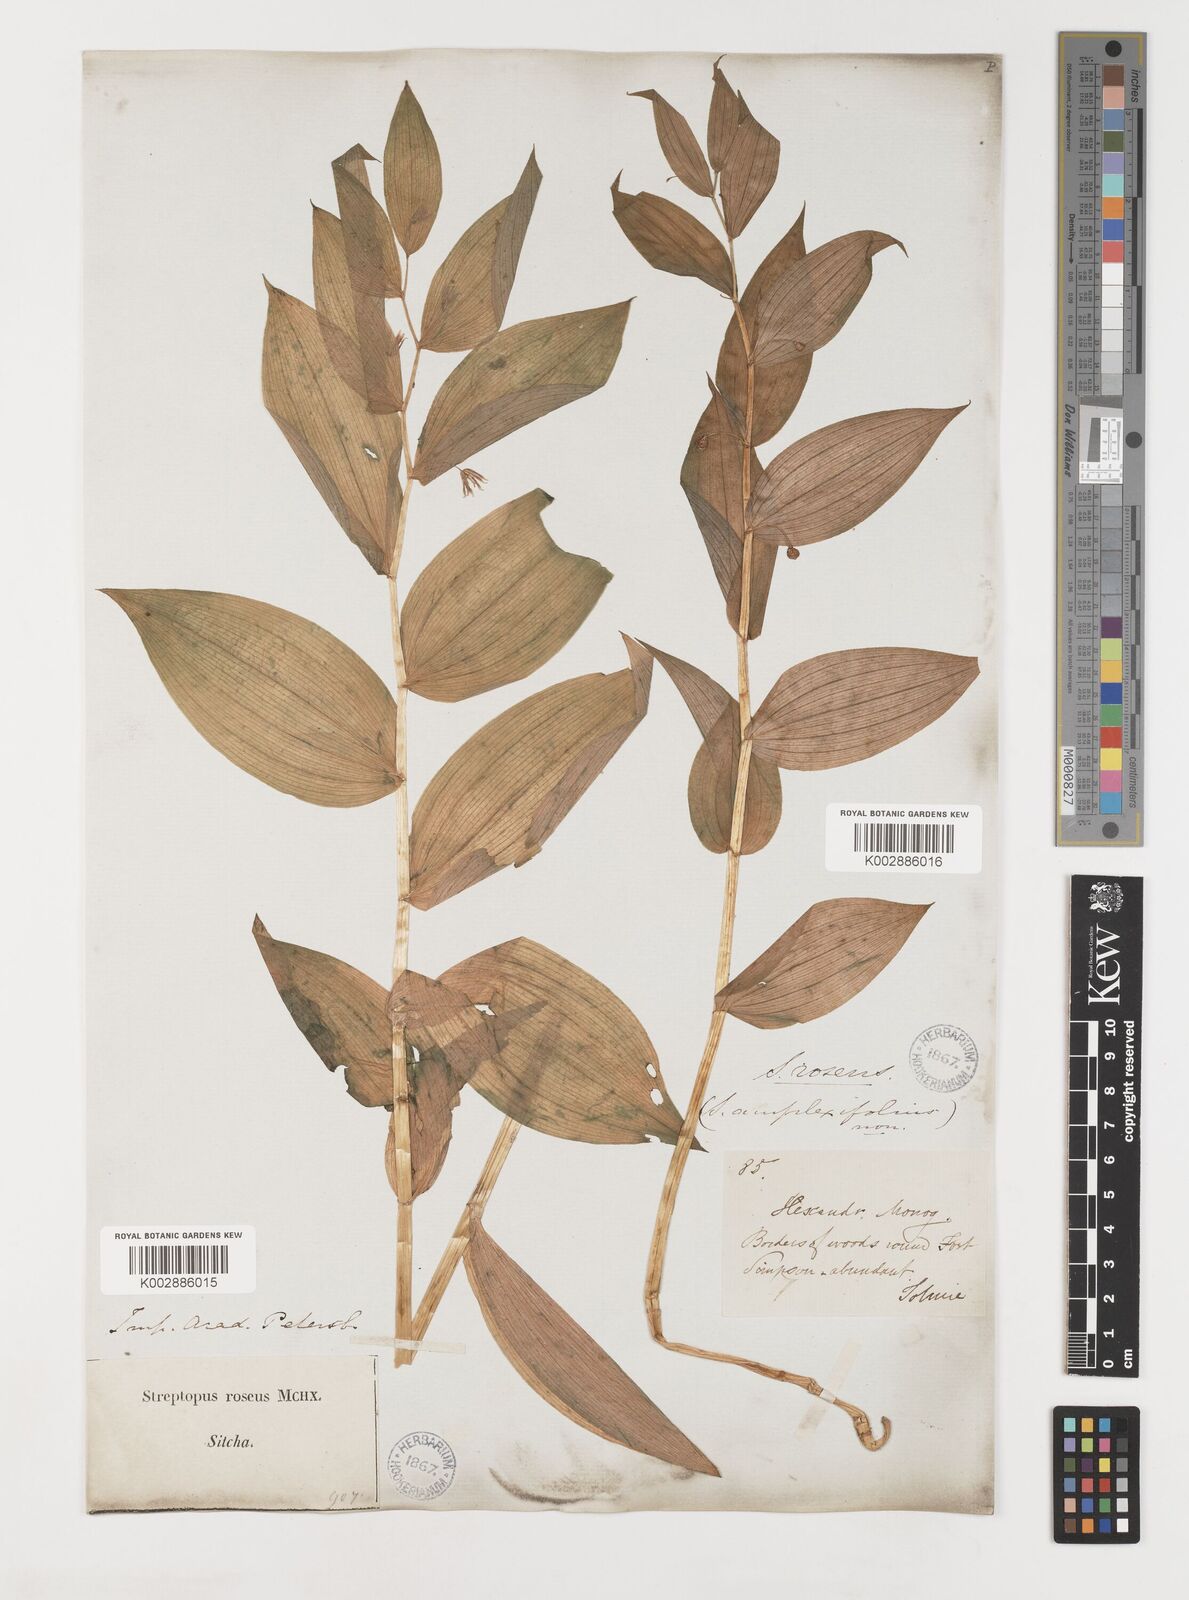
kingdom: Plantae
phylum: Tracheophyta
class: Liliopsida
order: Liliales
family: Liliaceae
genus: Streptopus
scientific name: Streptopus lanceolatus
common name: Rose mandarin
